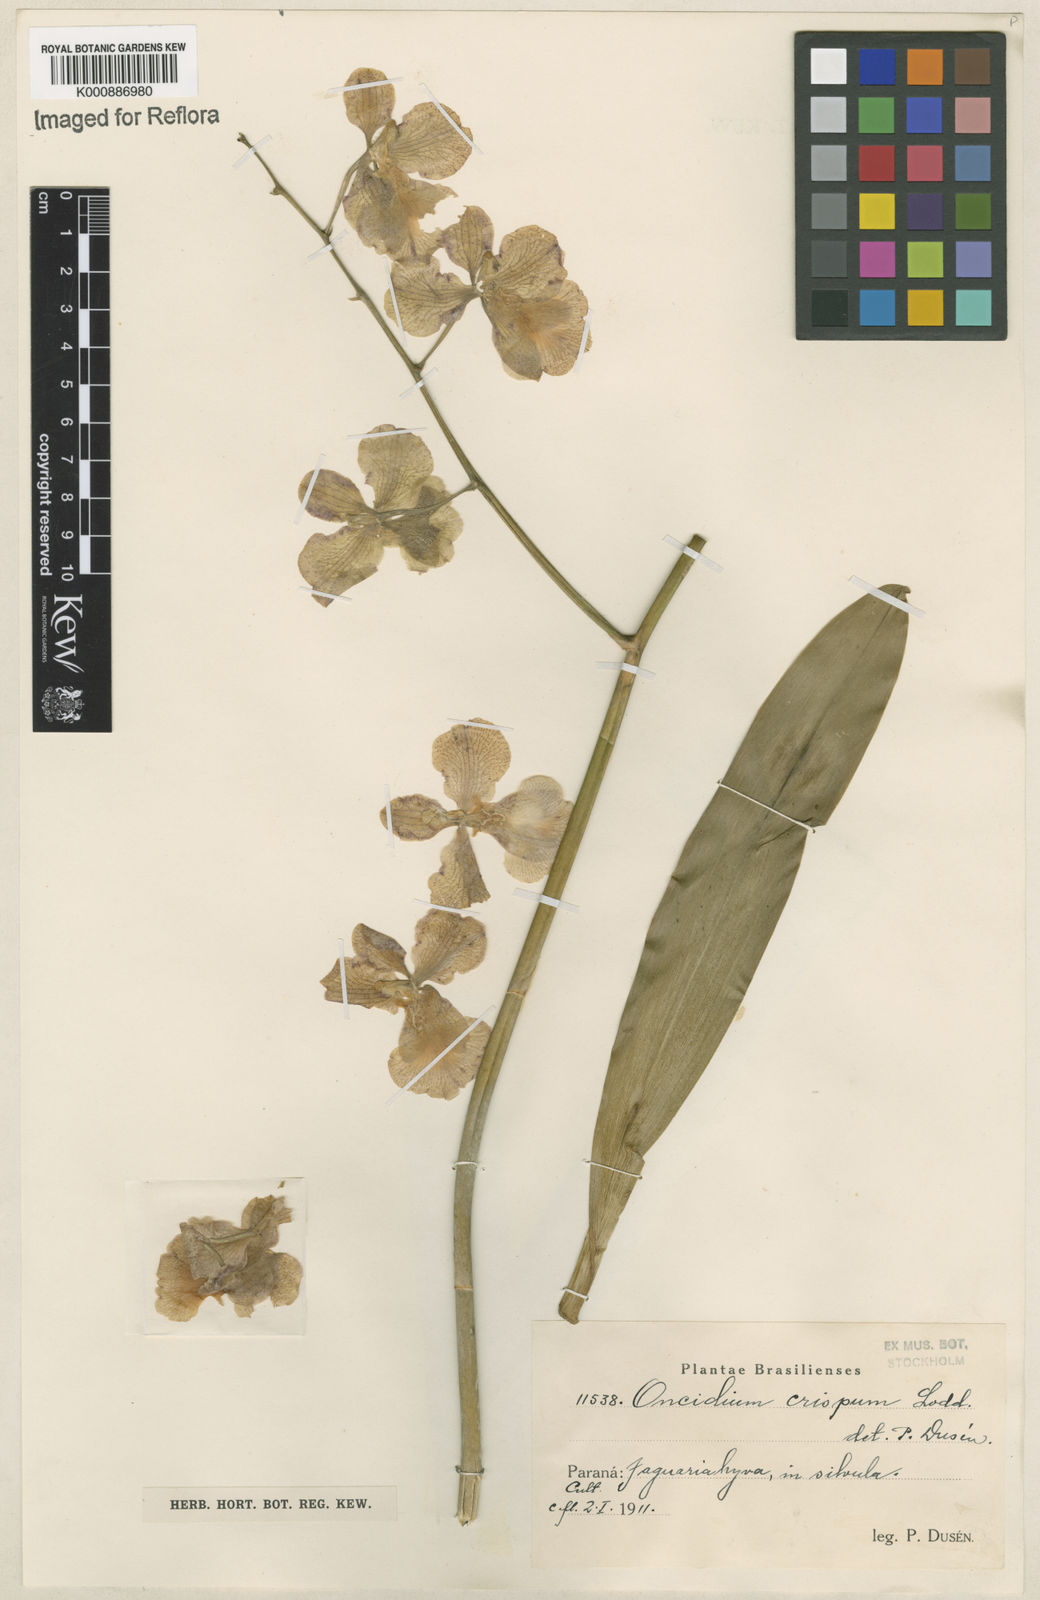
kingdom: Plantae
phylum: Tracheophyta
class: Liliopsida
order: Asparagales
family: Orchidaceae
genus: Gomesa
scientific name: Gomesa imperatoris-maximiliani
